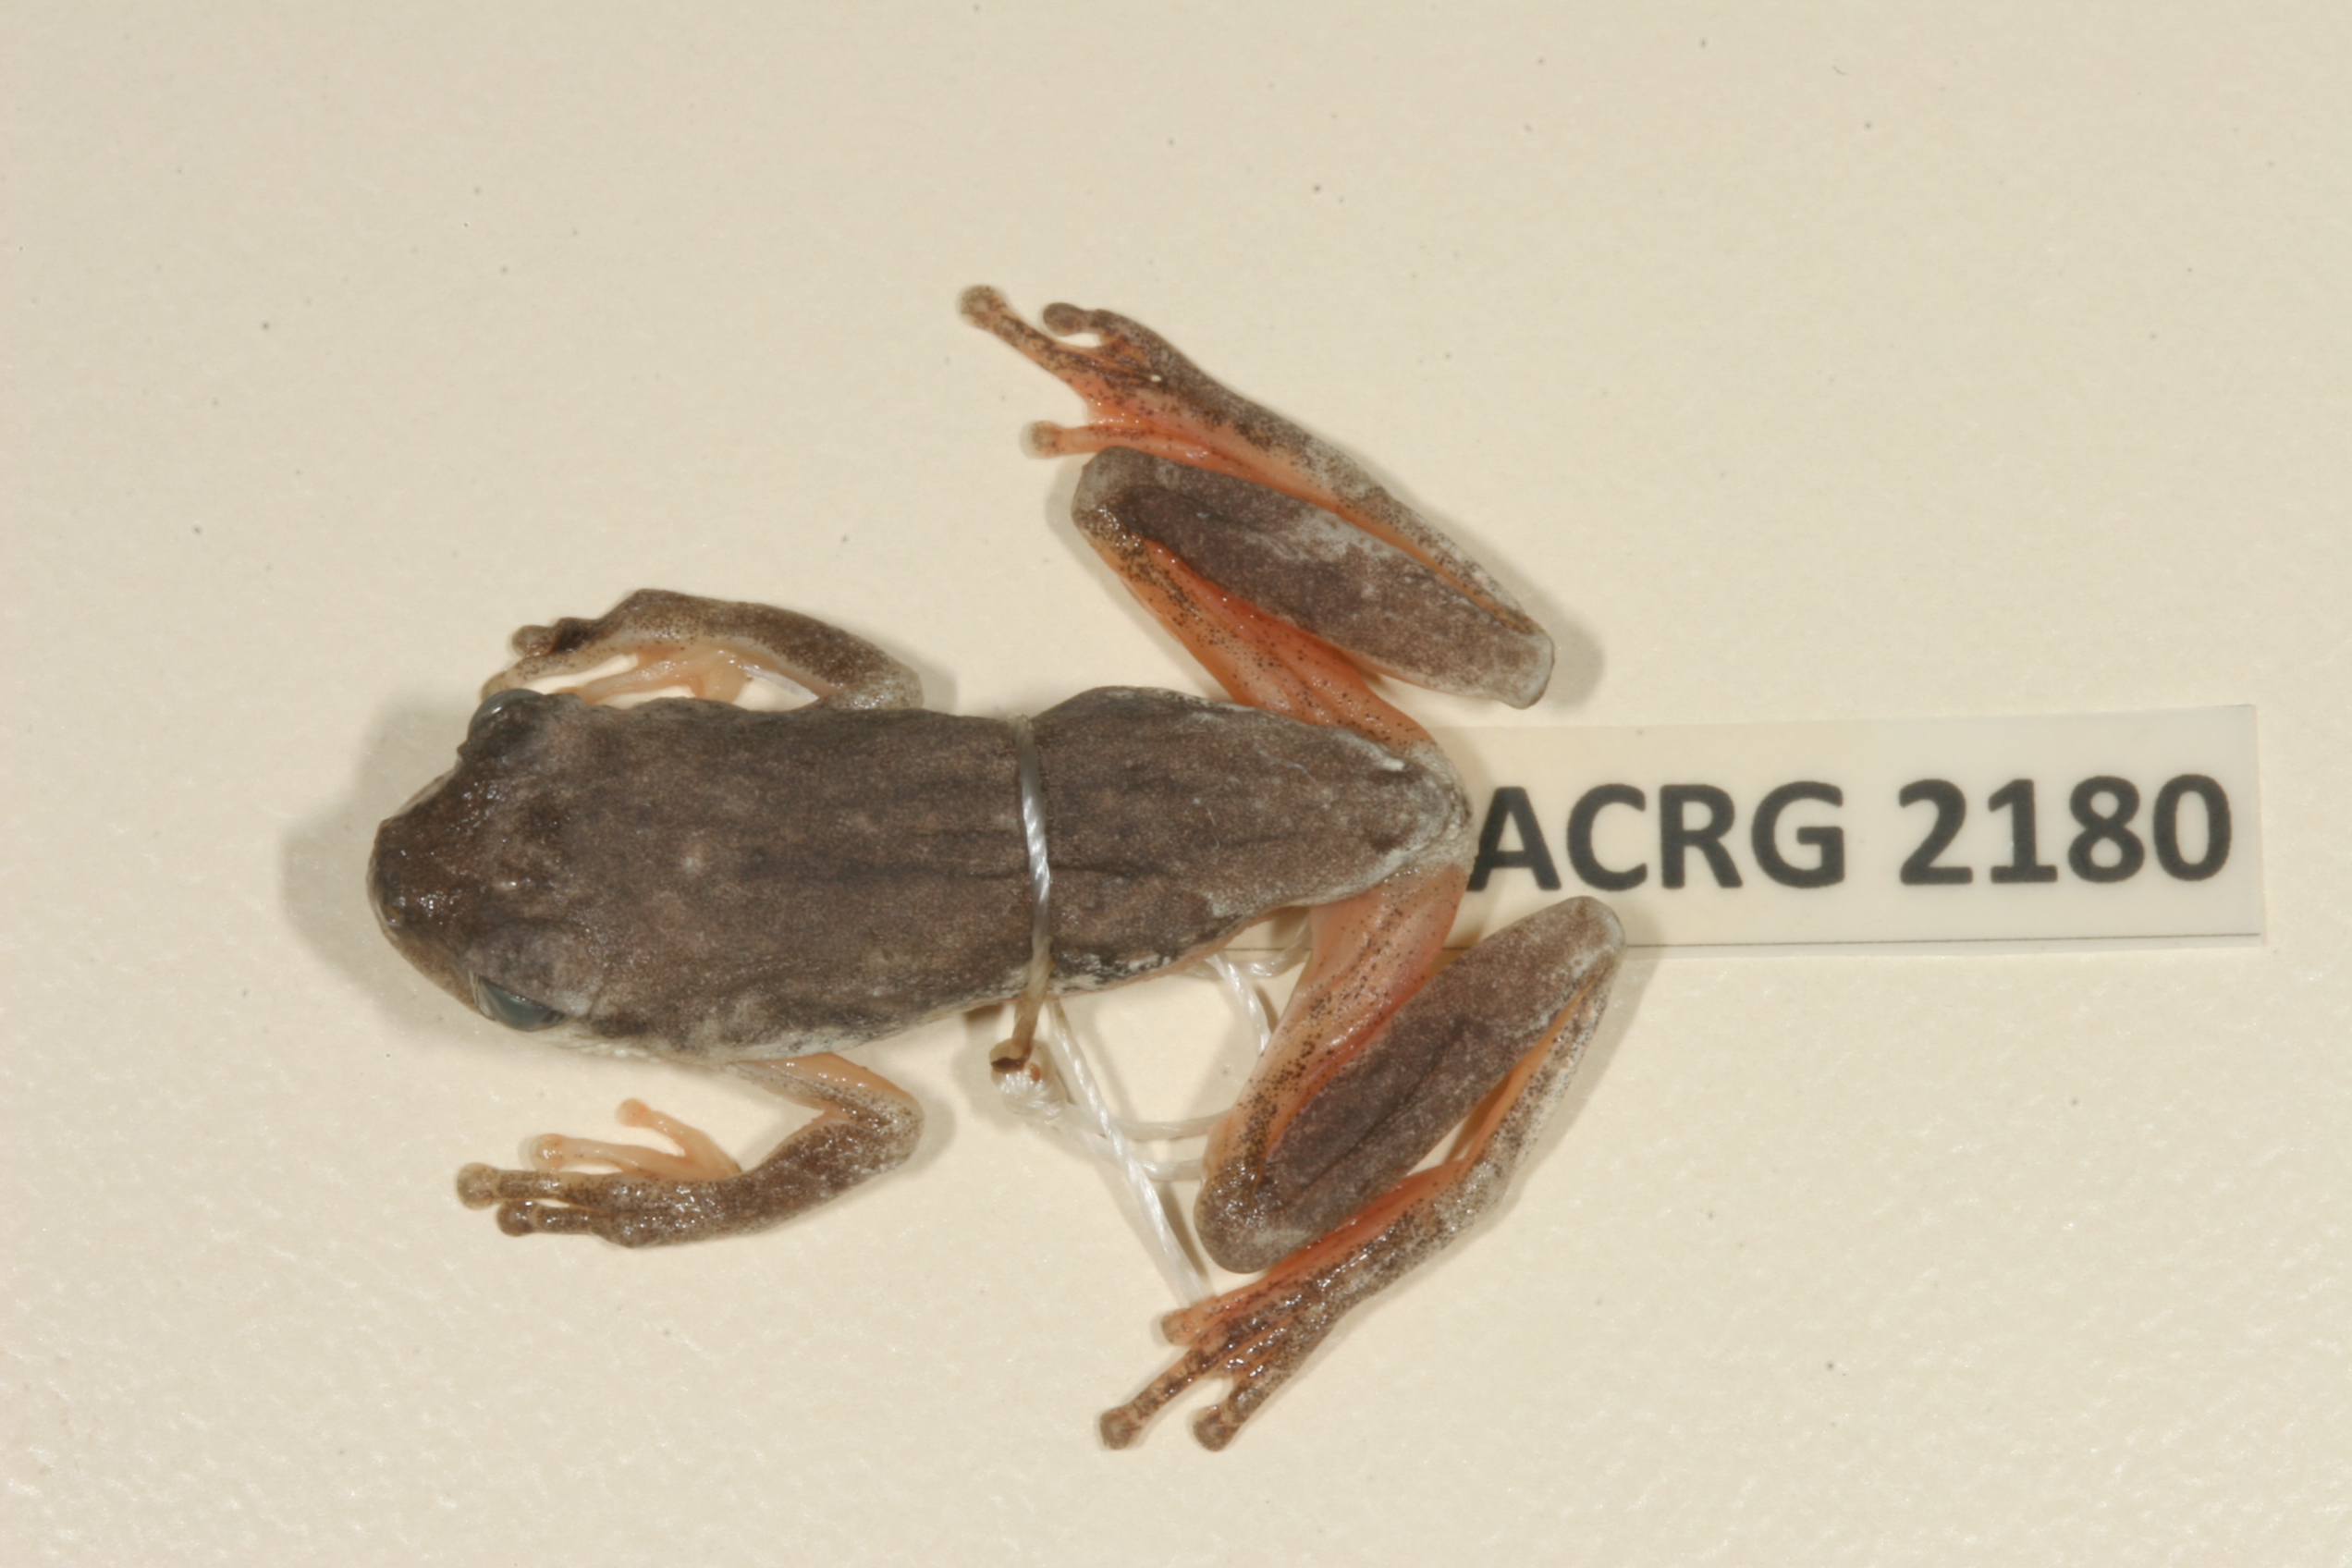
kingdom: Animalia
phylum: Chordata
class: Amphibia
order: Anura
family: Hyperoliidae
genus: Hyperolius
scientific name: Hyperolius marmoratus
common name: Painted reed frog
